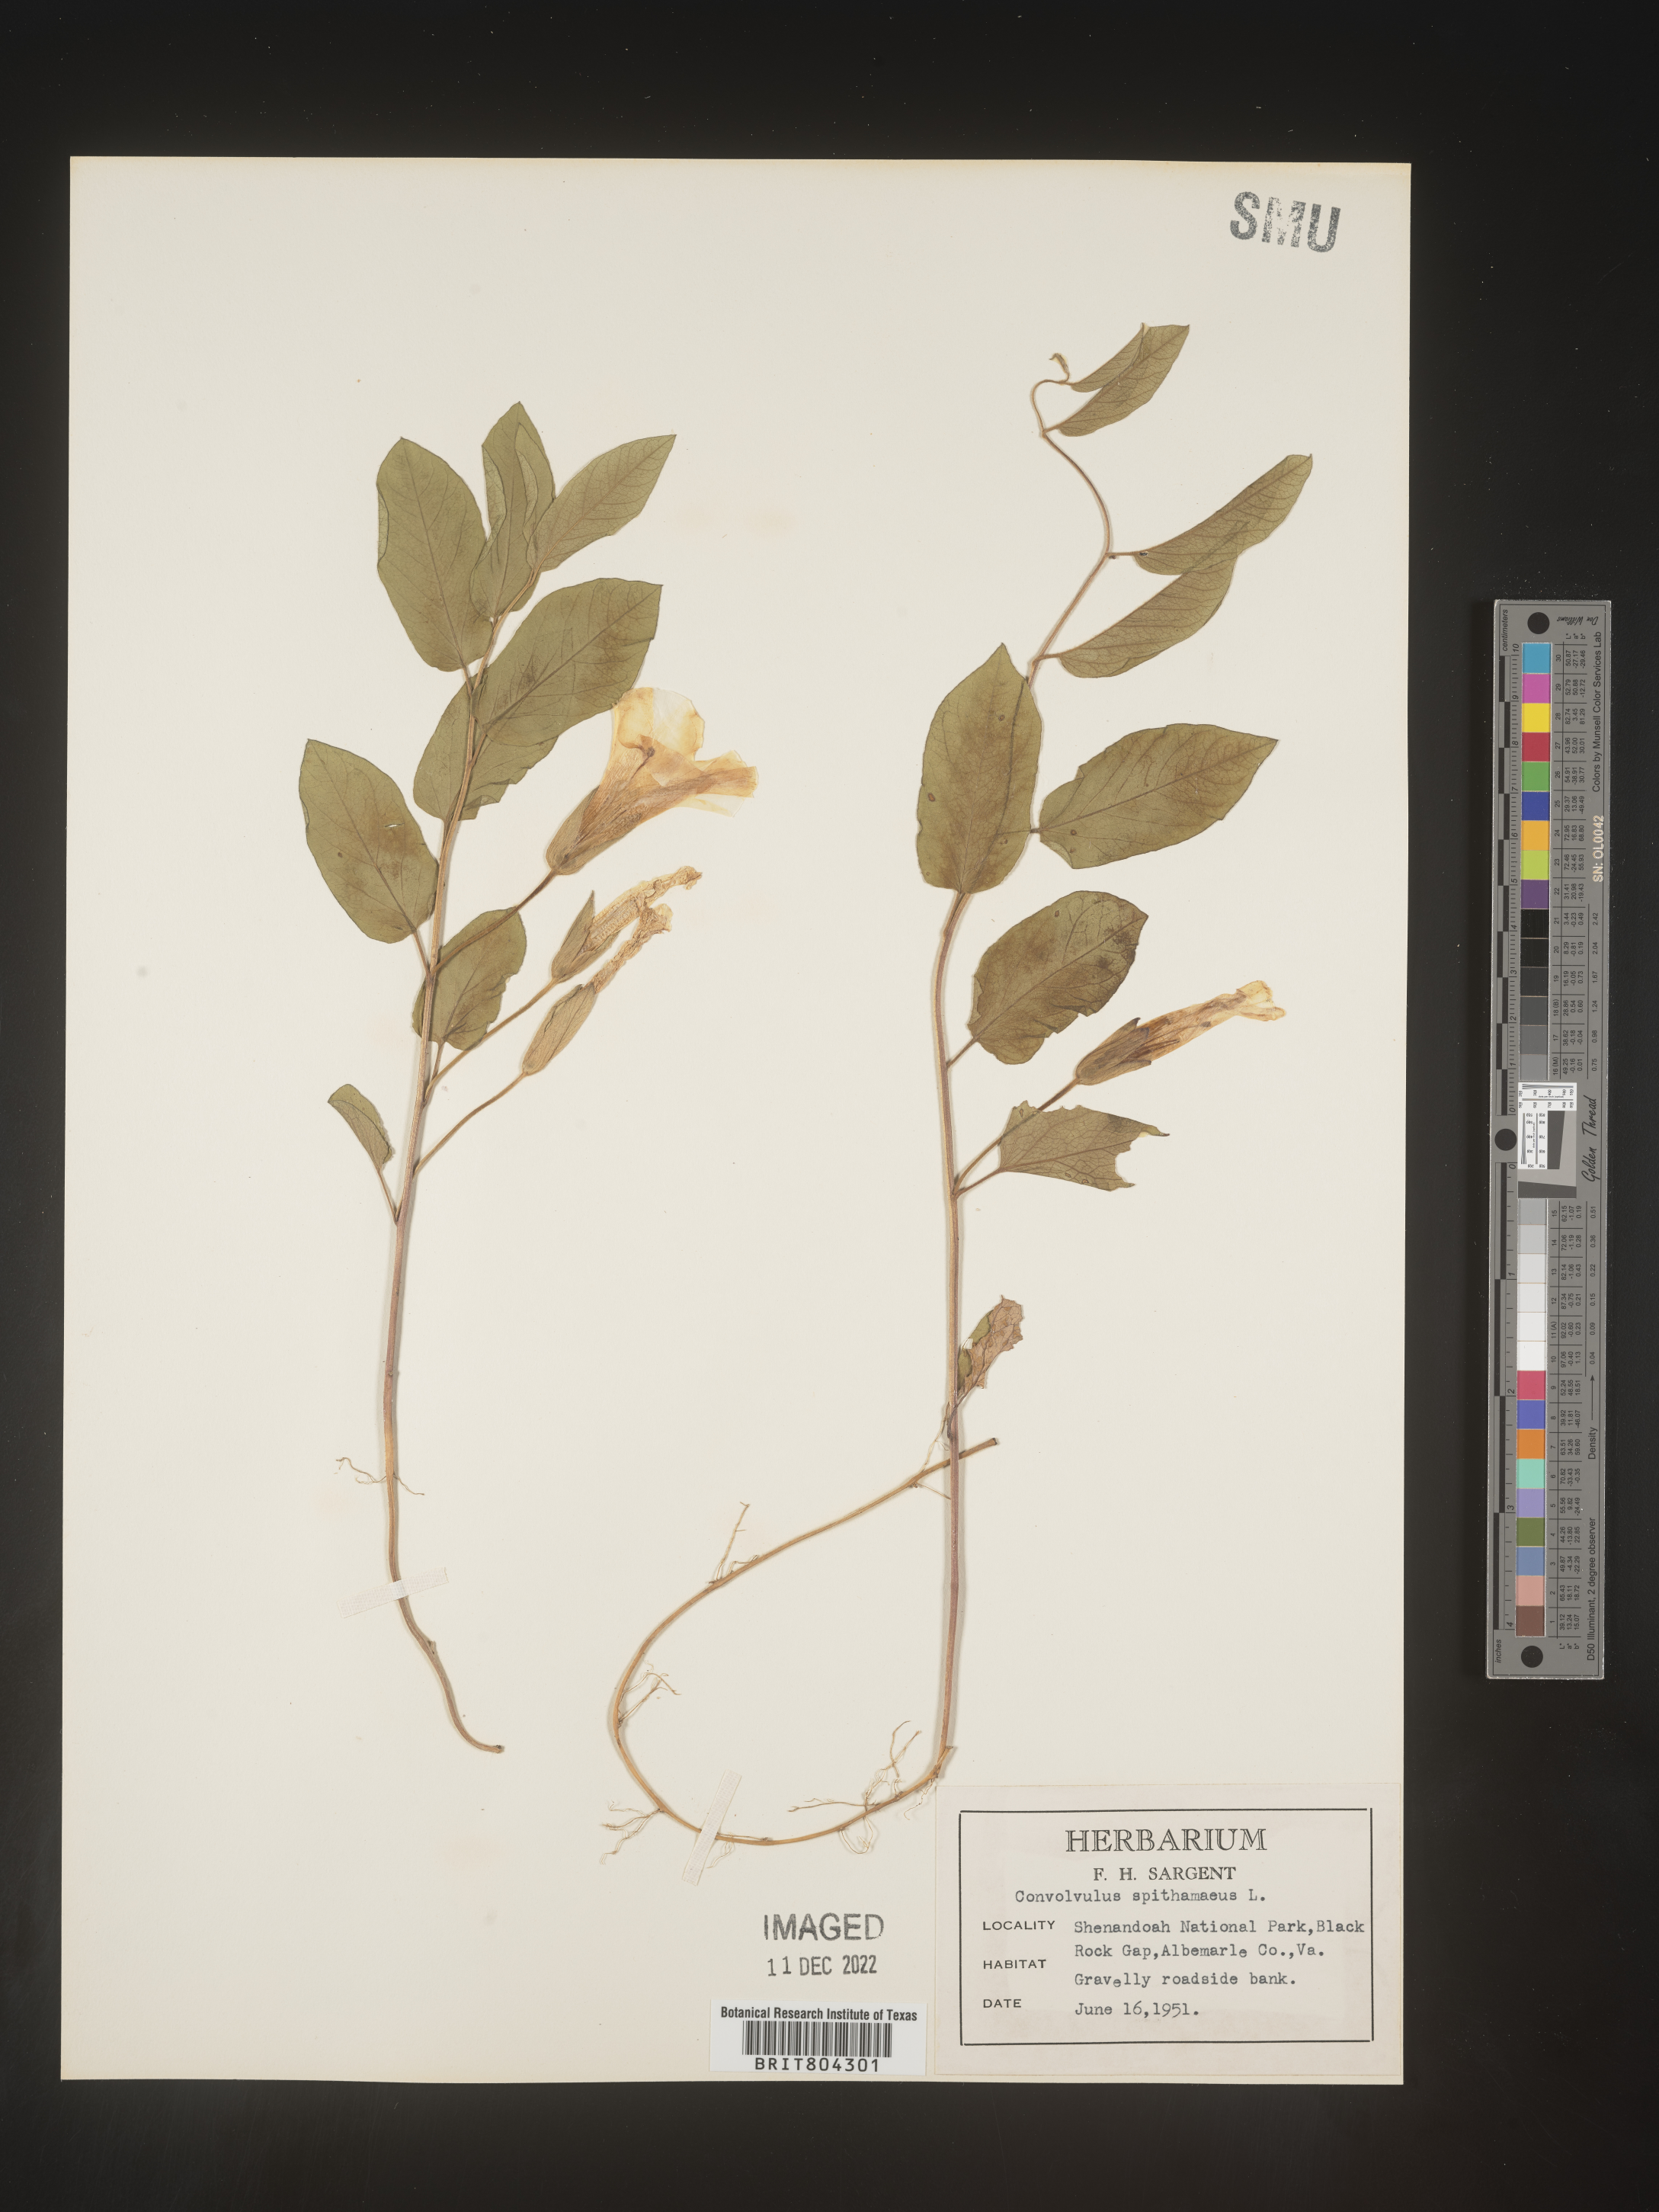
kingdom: Plantae
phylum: Tracheophyta
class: Magnoliopsida
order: Solanales
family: Convolvulaceae
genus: Calystegia
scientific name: Calystegia
